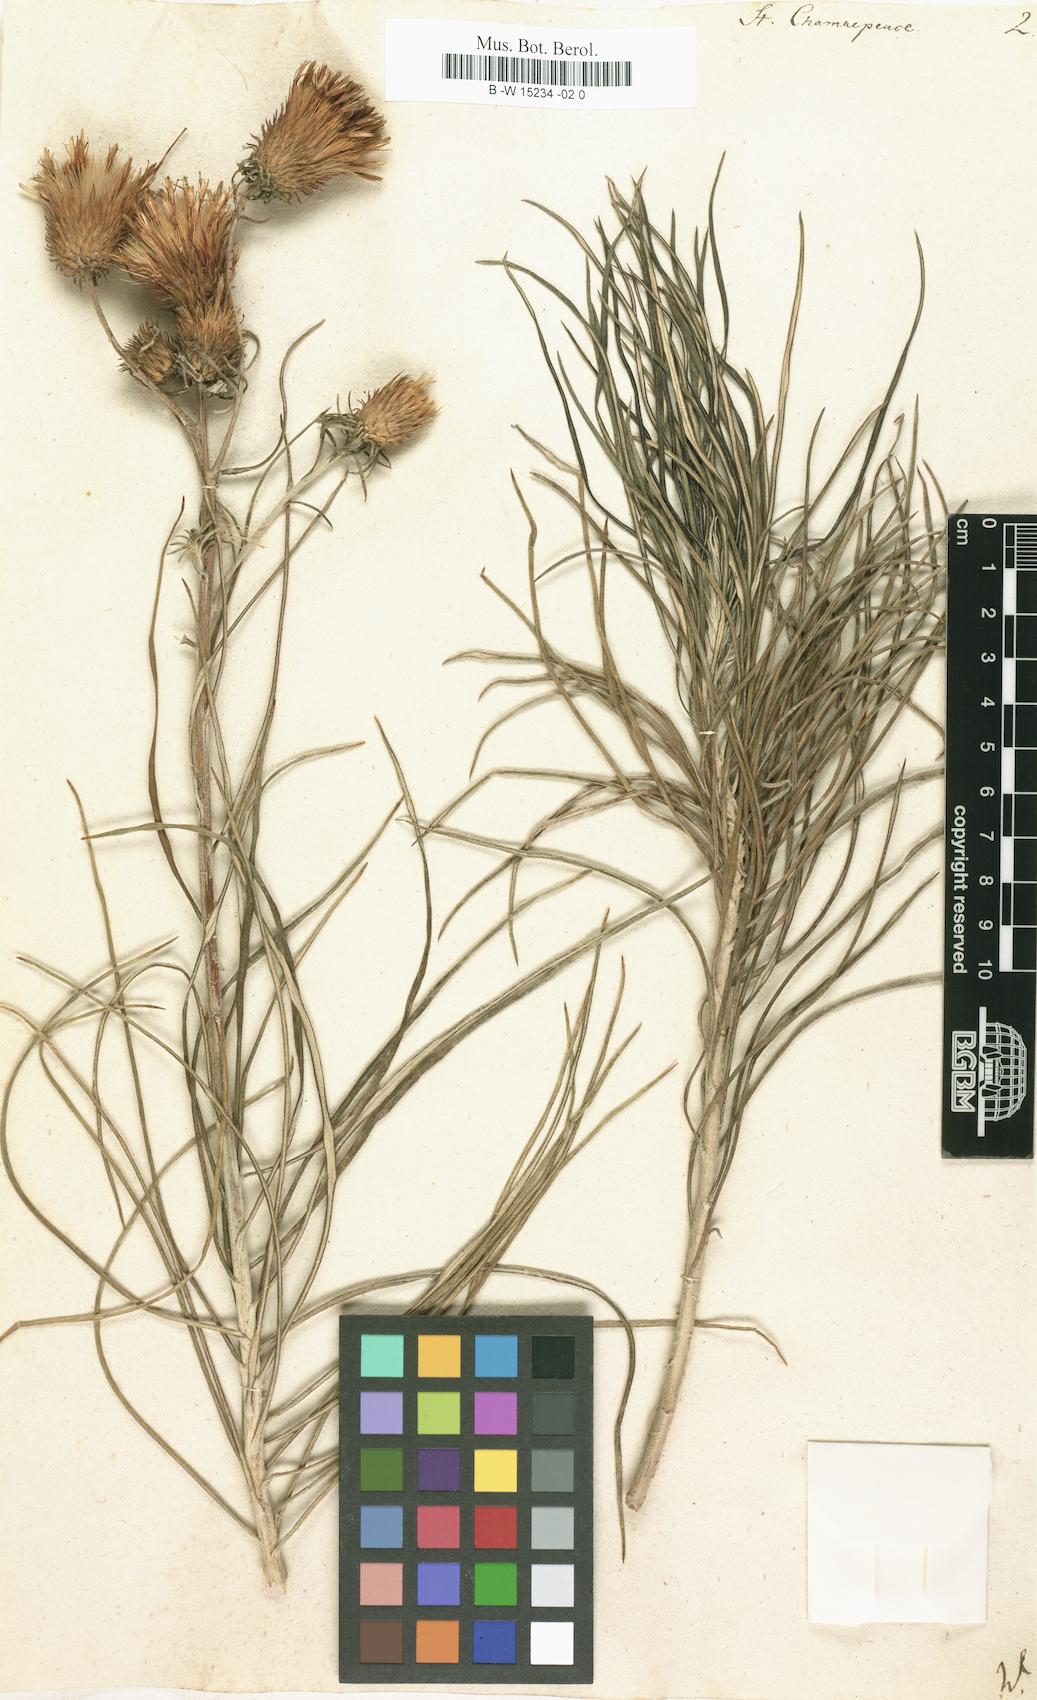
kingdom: Plantae
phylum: Tracheophyta
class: Magnoliopsida
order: Asterales
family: Asteraceae
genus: Ptilostemon
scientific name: Ptilostemon
